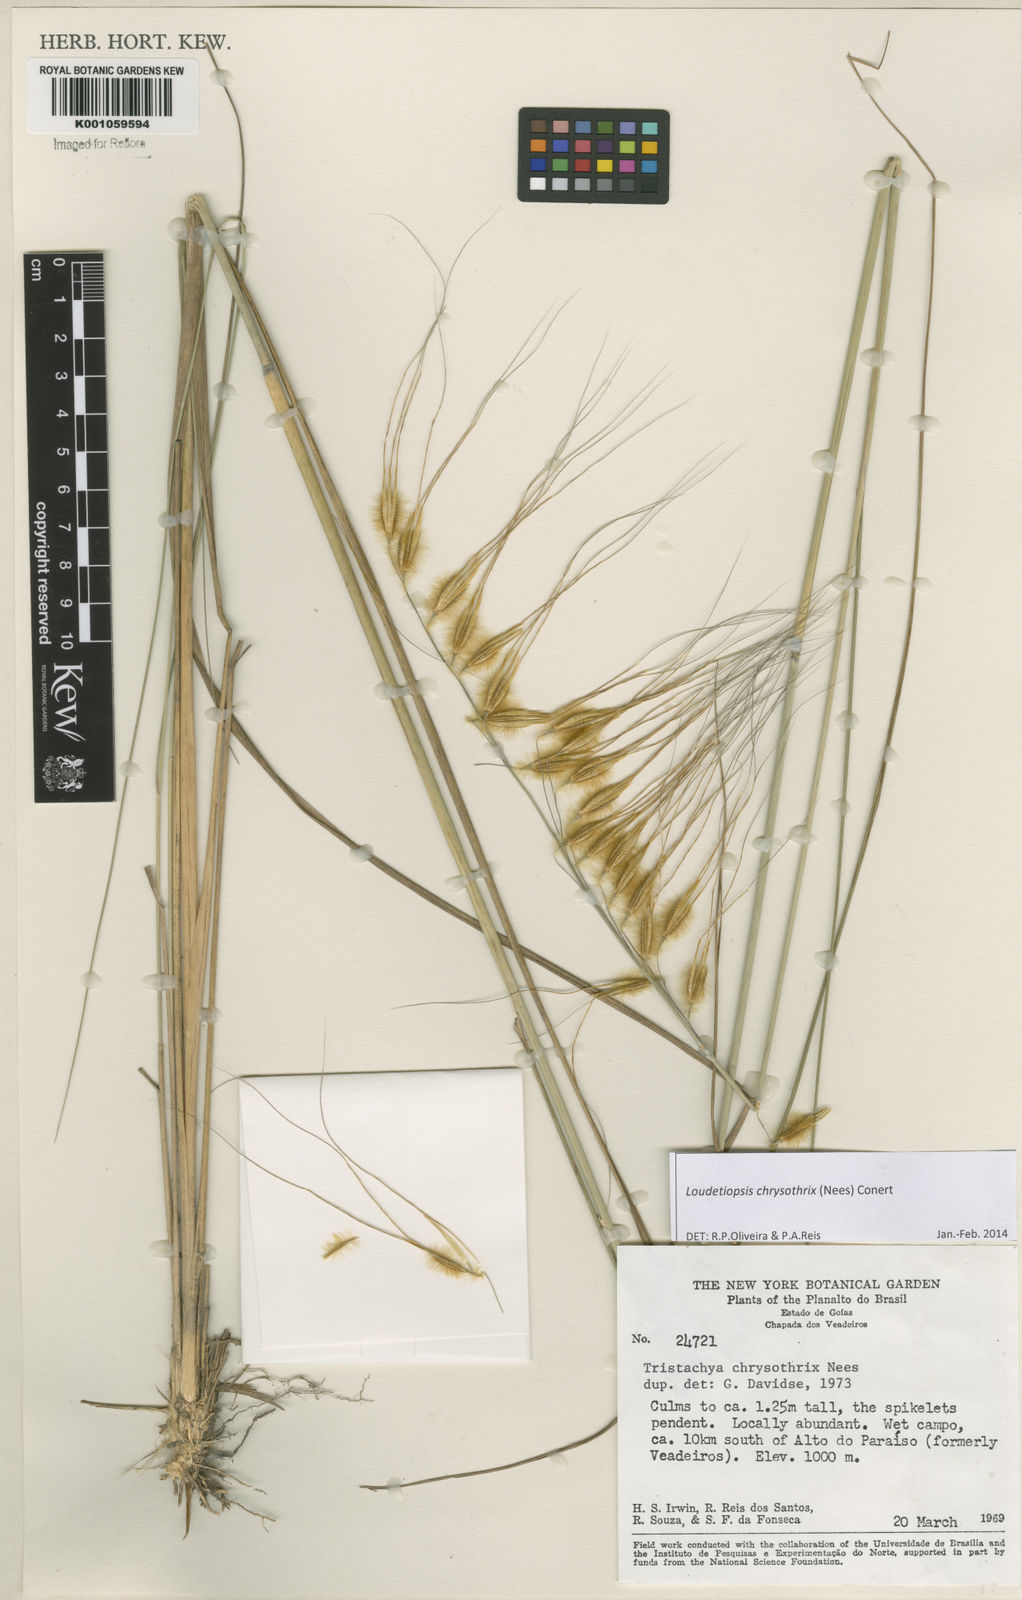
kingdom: Plantae
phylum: Tracheophyta
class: Liliopsida
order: Poales
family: Poaceae
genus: Loudetiopsis
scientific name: Loudetiopsis chrysothrix
